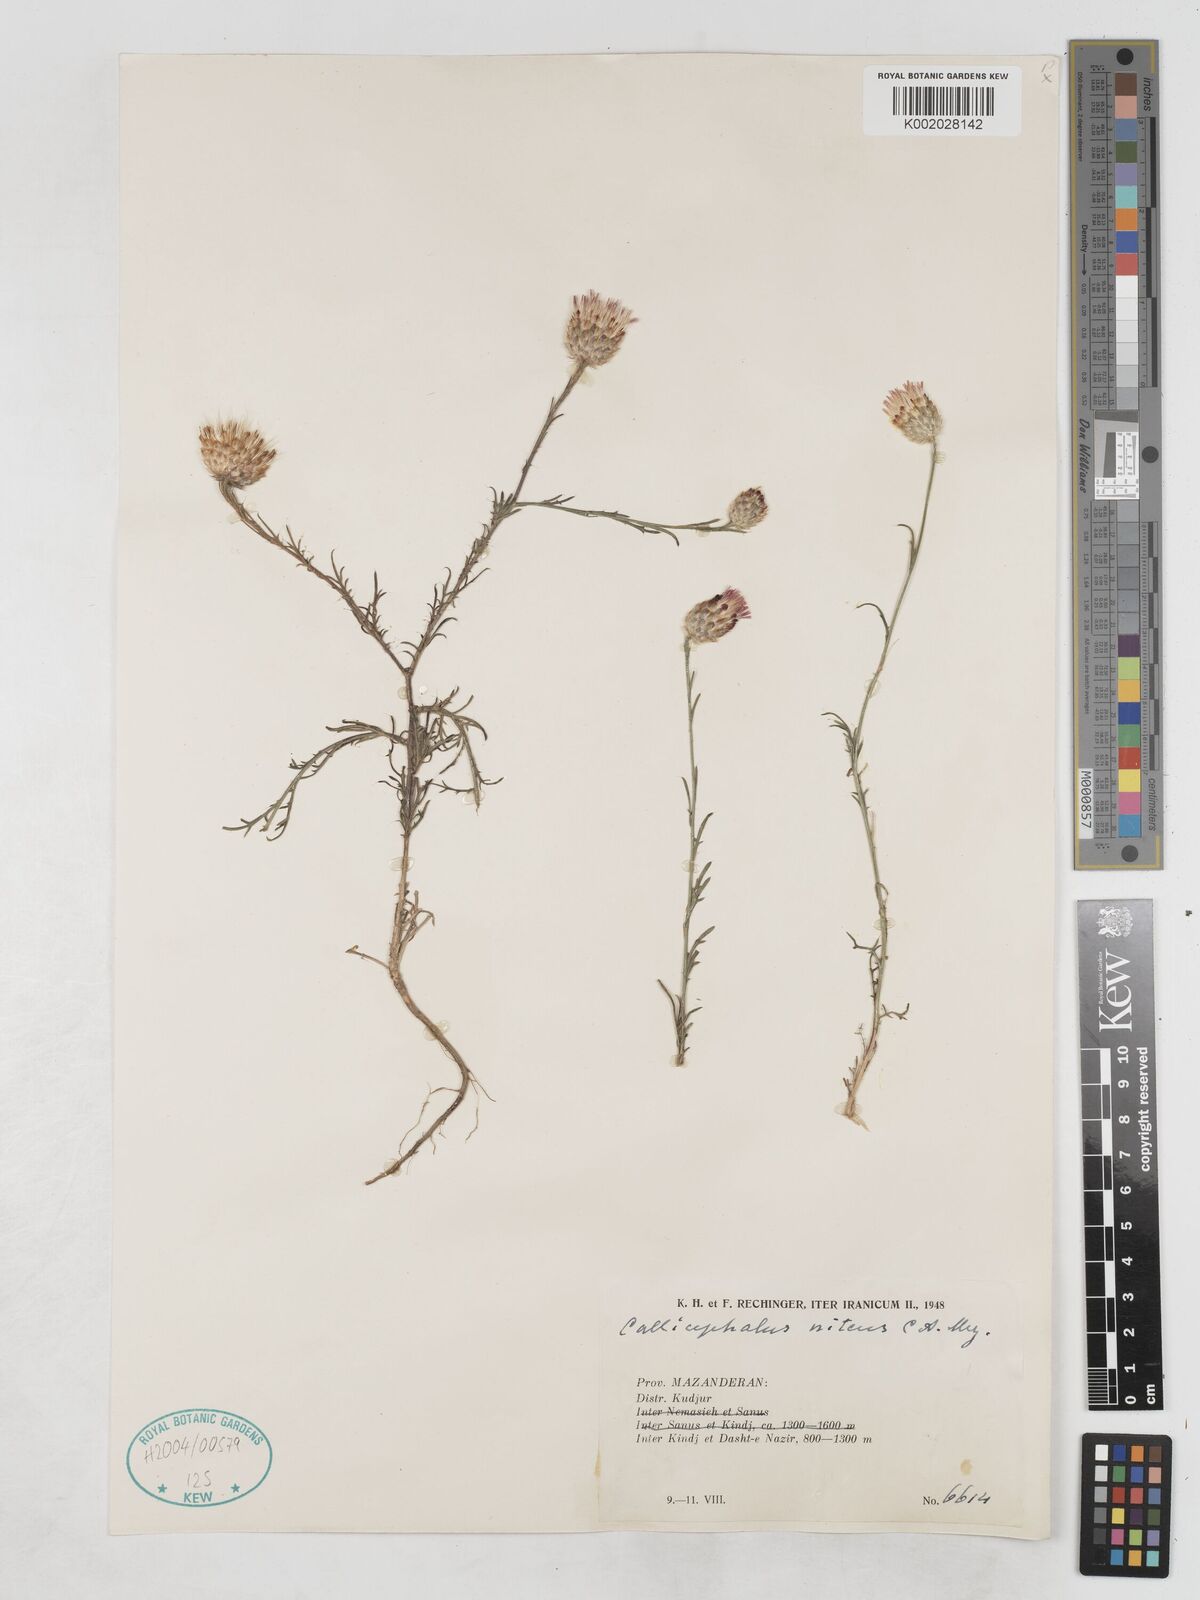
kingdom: Plantae
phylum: Tracheophyta
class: Magnoliopsida
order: Asterales
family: Asteraceae
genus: Callicephalus
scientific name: Callicephalus nitens
